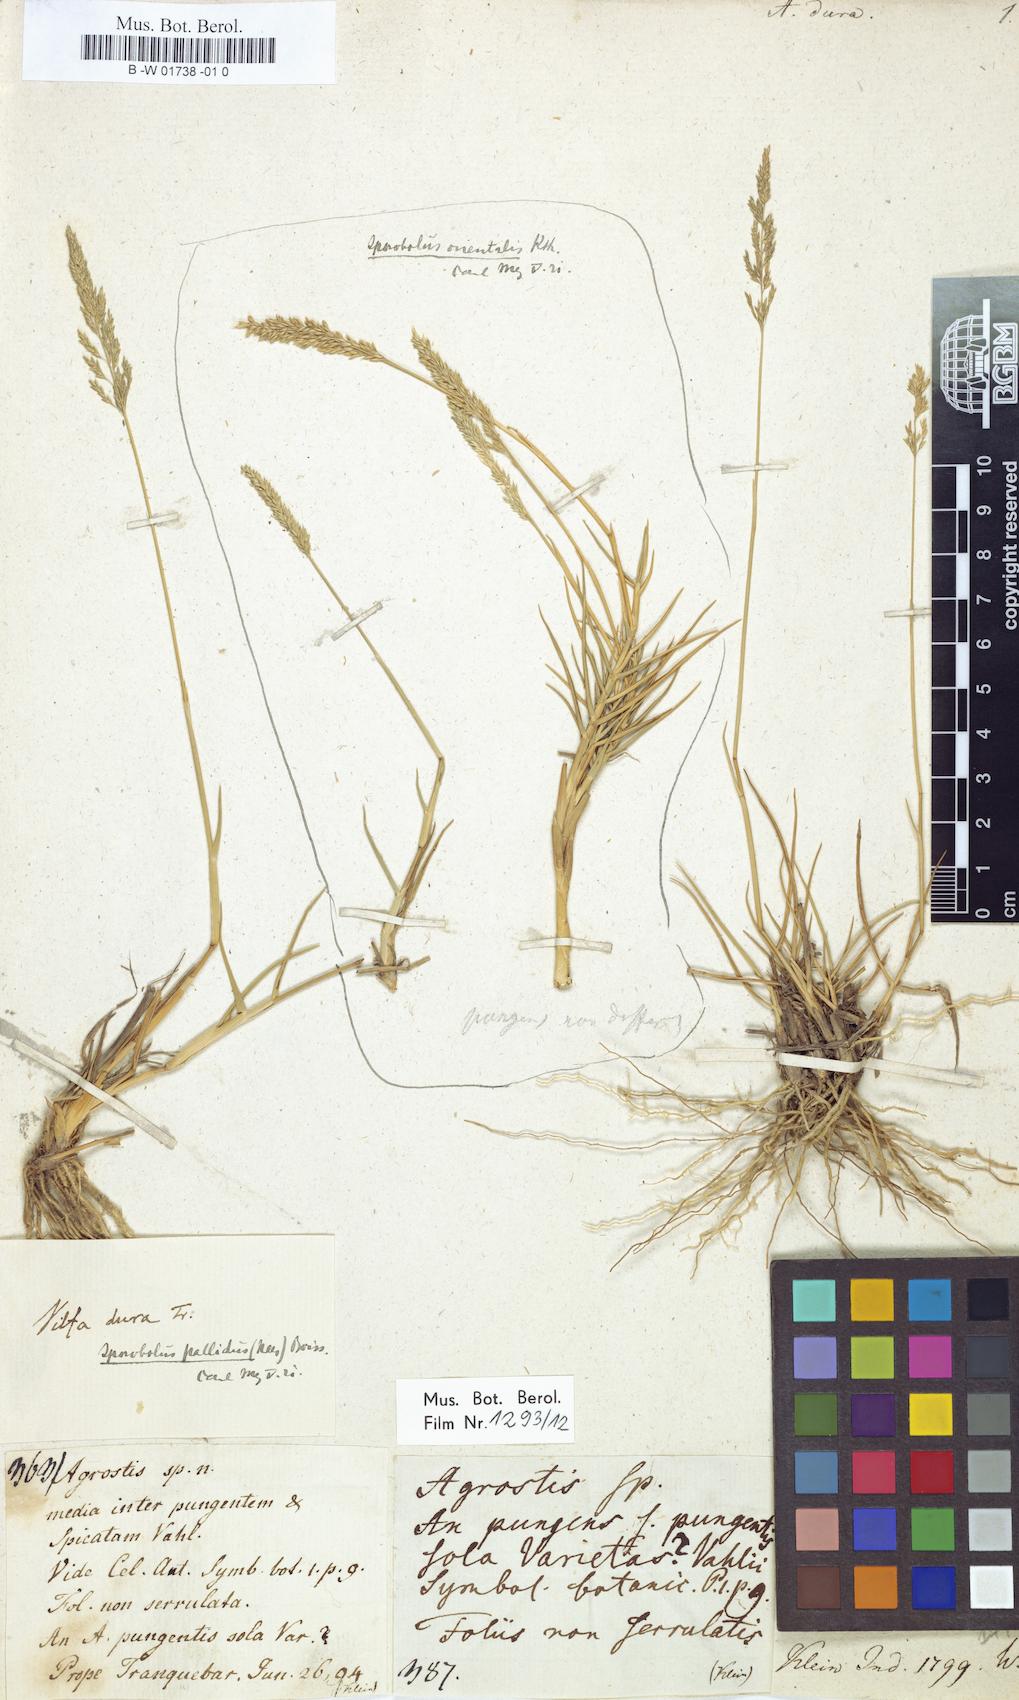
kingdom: Plantae
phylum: Tracheophyta
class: Liliopsida
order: Poales
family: Poaceae
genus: Agrostis
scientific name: Agrostis dura
